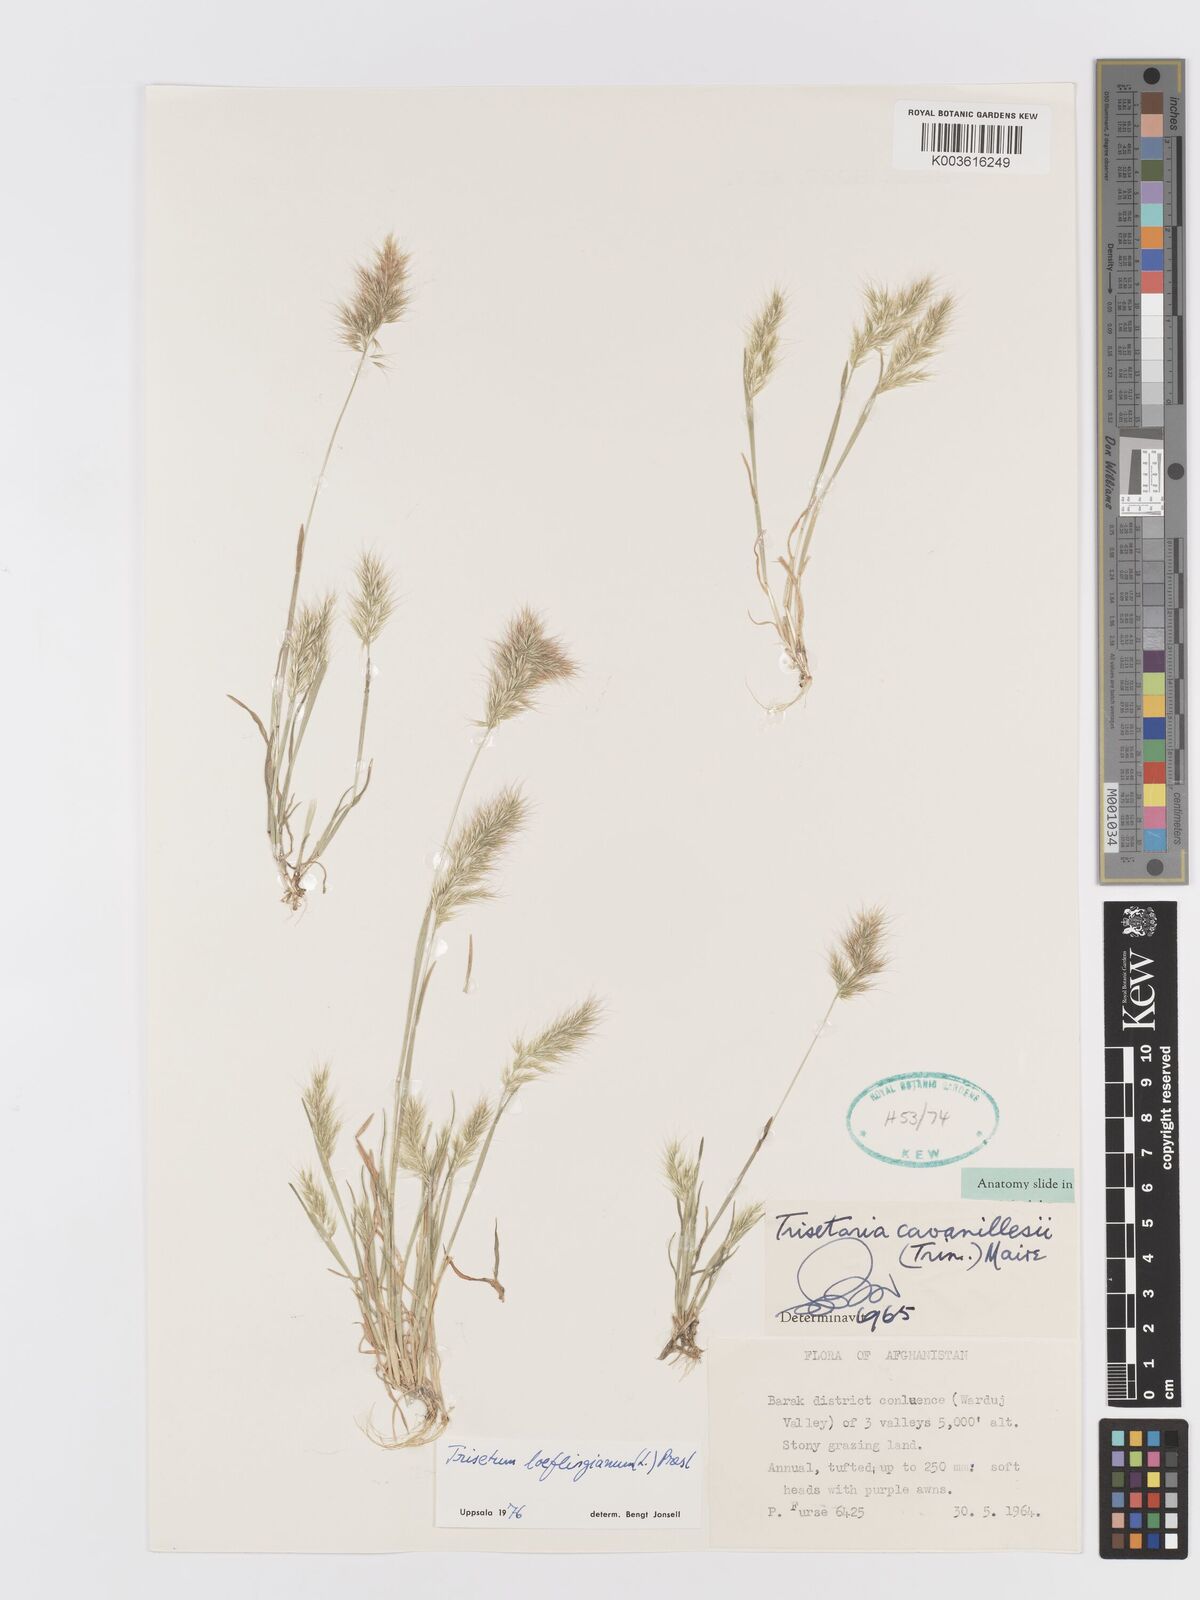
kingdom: Plantae
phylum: Tracheophyta
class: Liliopsida
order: Poales
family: Poaceae
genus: Trisetaria
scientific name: Trisetaria loeflingiana
